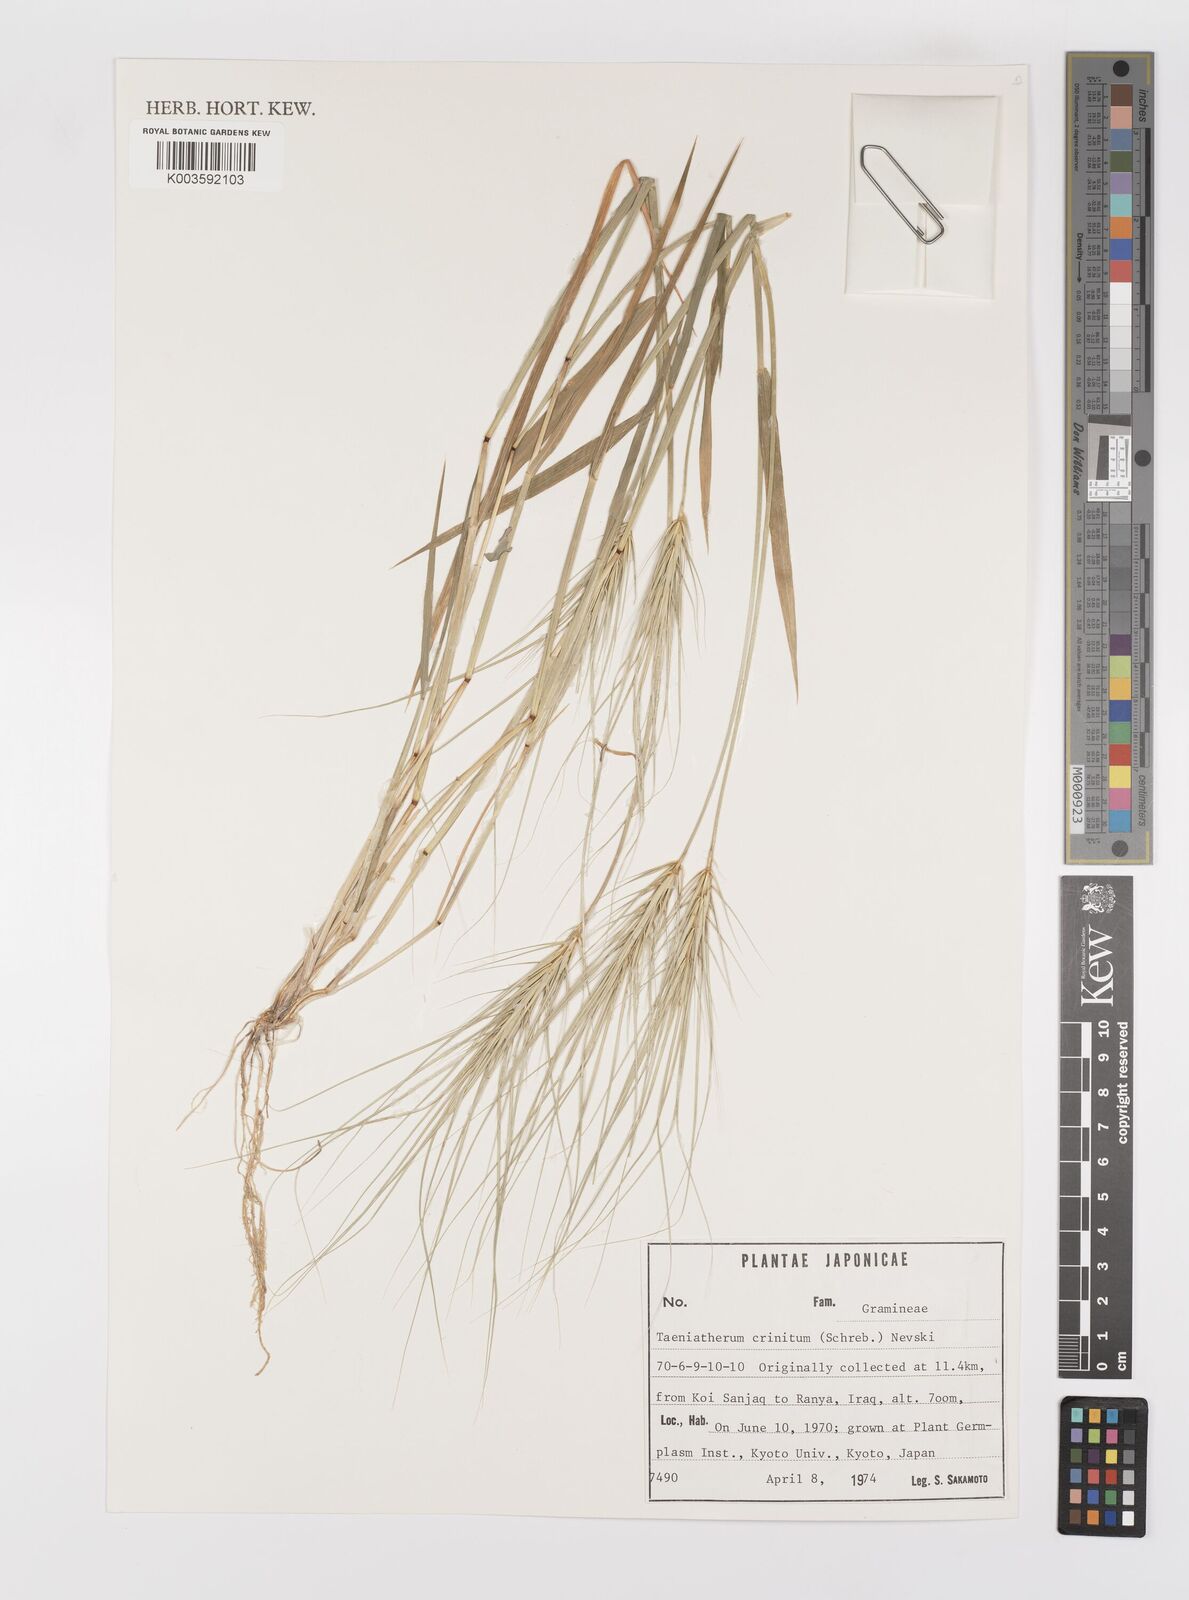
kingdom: Plantae
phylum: Tracheophyta
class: Liliopsida
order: Poales
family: Poaceae
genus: Taeniatherum
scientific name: Taeniatherum caput-medusae
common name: Medusahead
